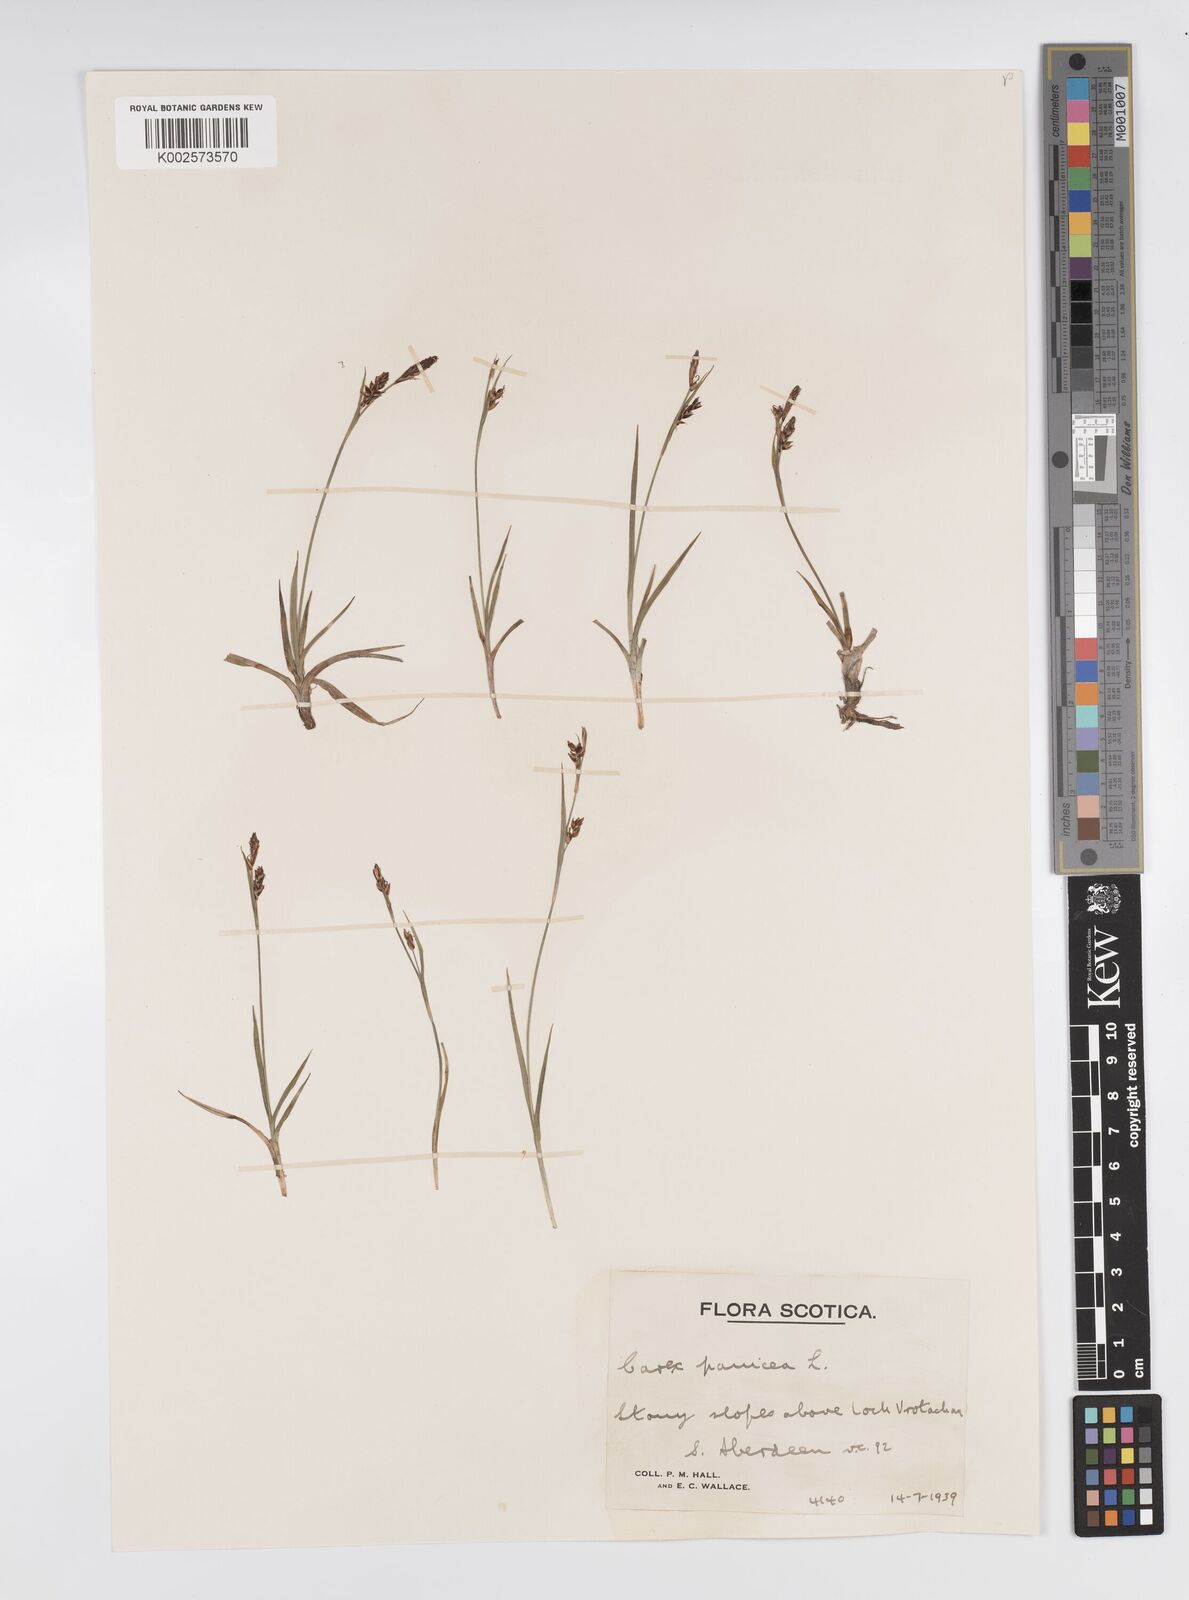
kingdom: Plantae
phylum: Tracheophyta
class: Liliopsida
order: Poales
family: Cyperaceae
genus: Carex
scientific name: Carex panicea
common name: Carnation sedge
